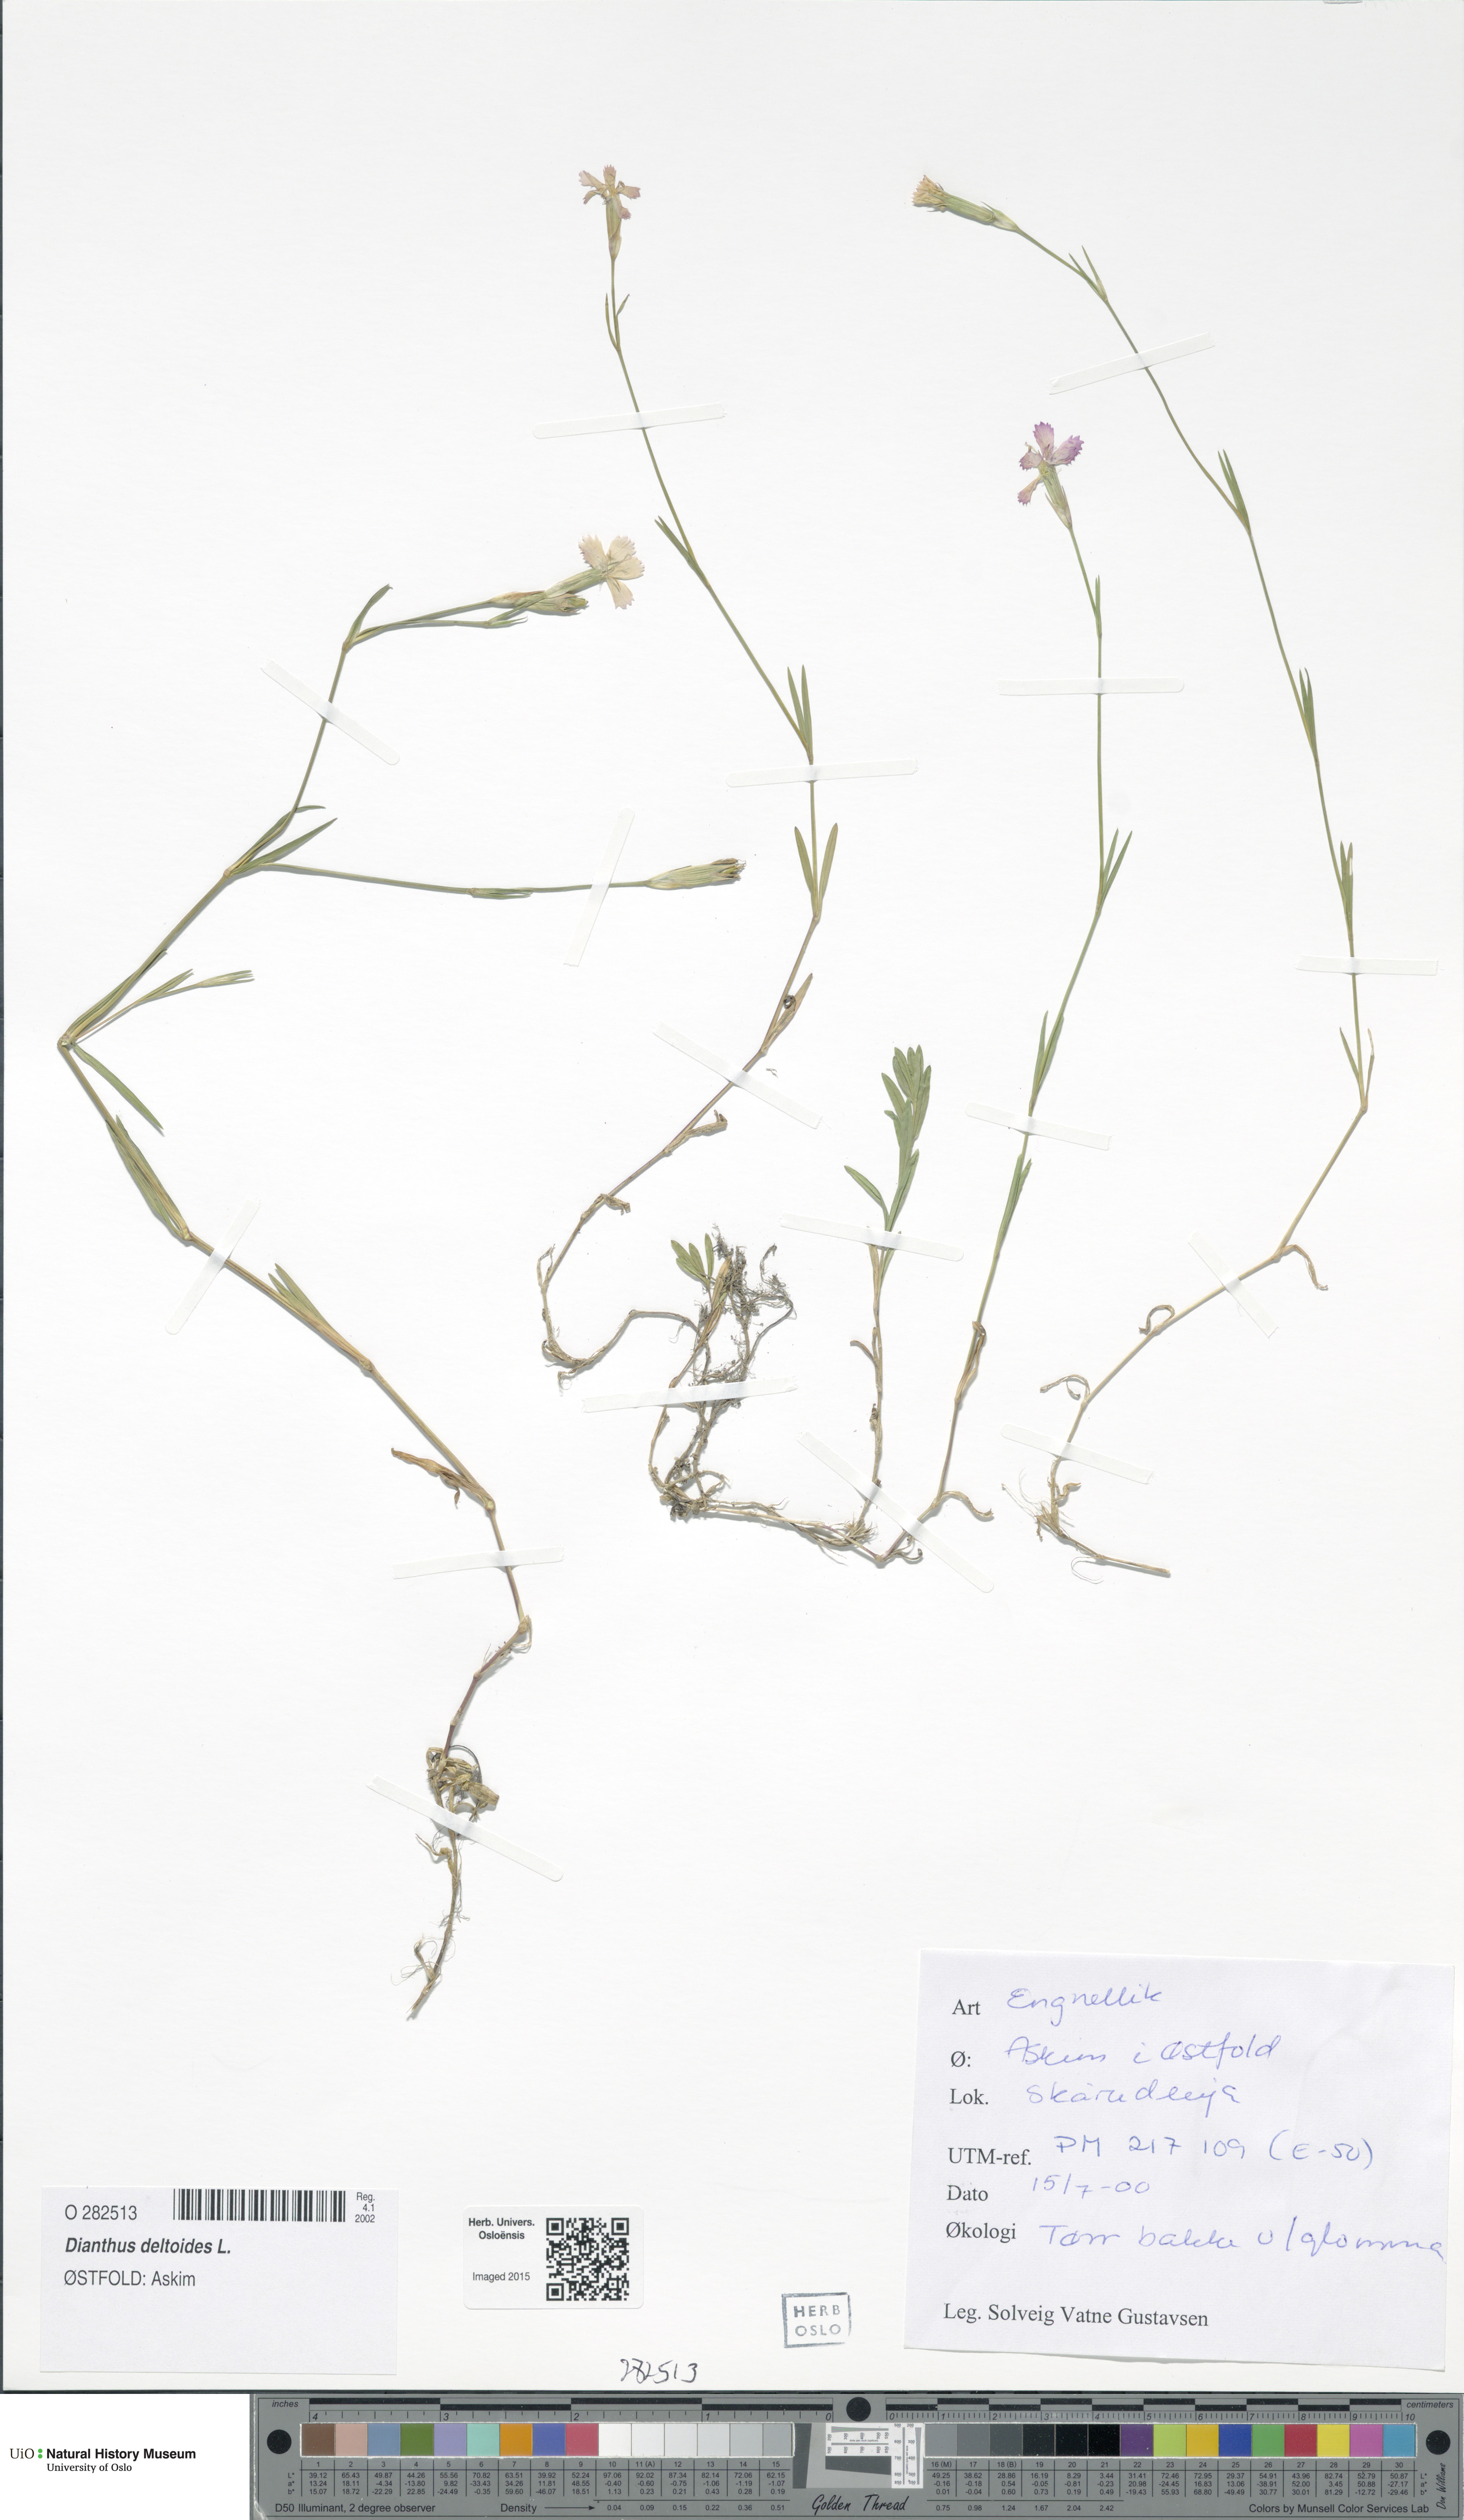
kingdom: Plantae
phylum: Tracheophyta
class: Magnoliopsida
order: Caryophyllales
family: Caryophyllaceae
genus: Dianthus
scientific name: Dianthus deltoides
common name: Maiden pink
